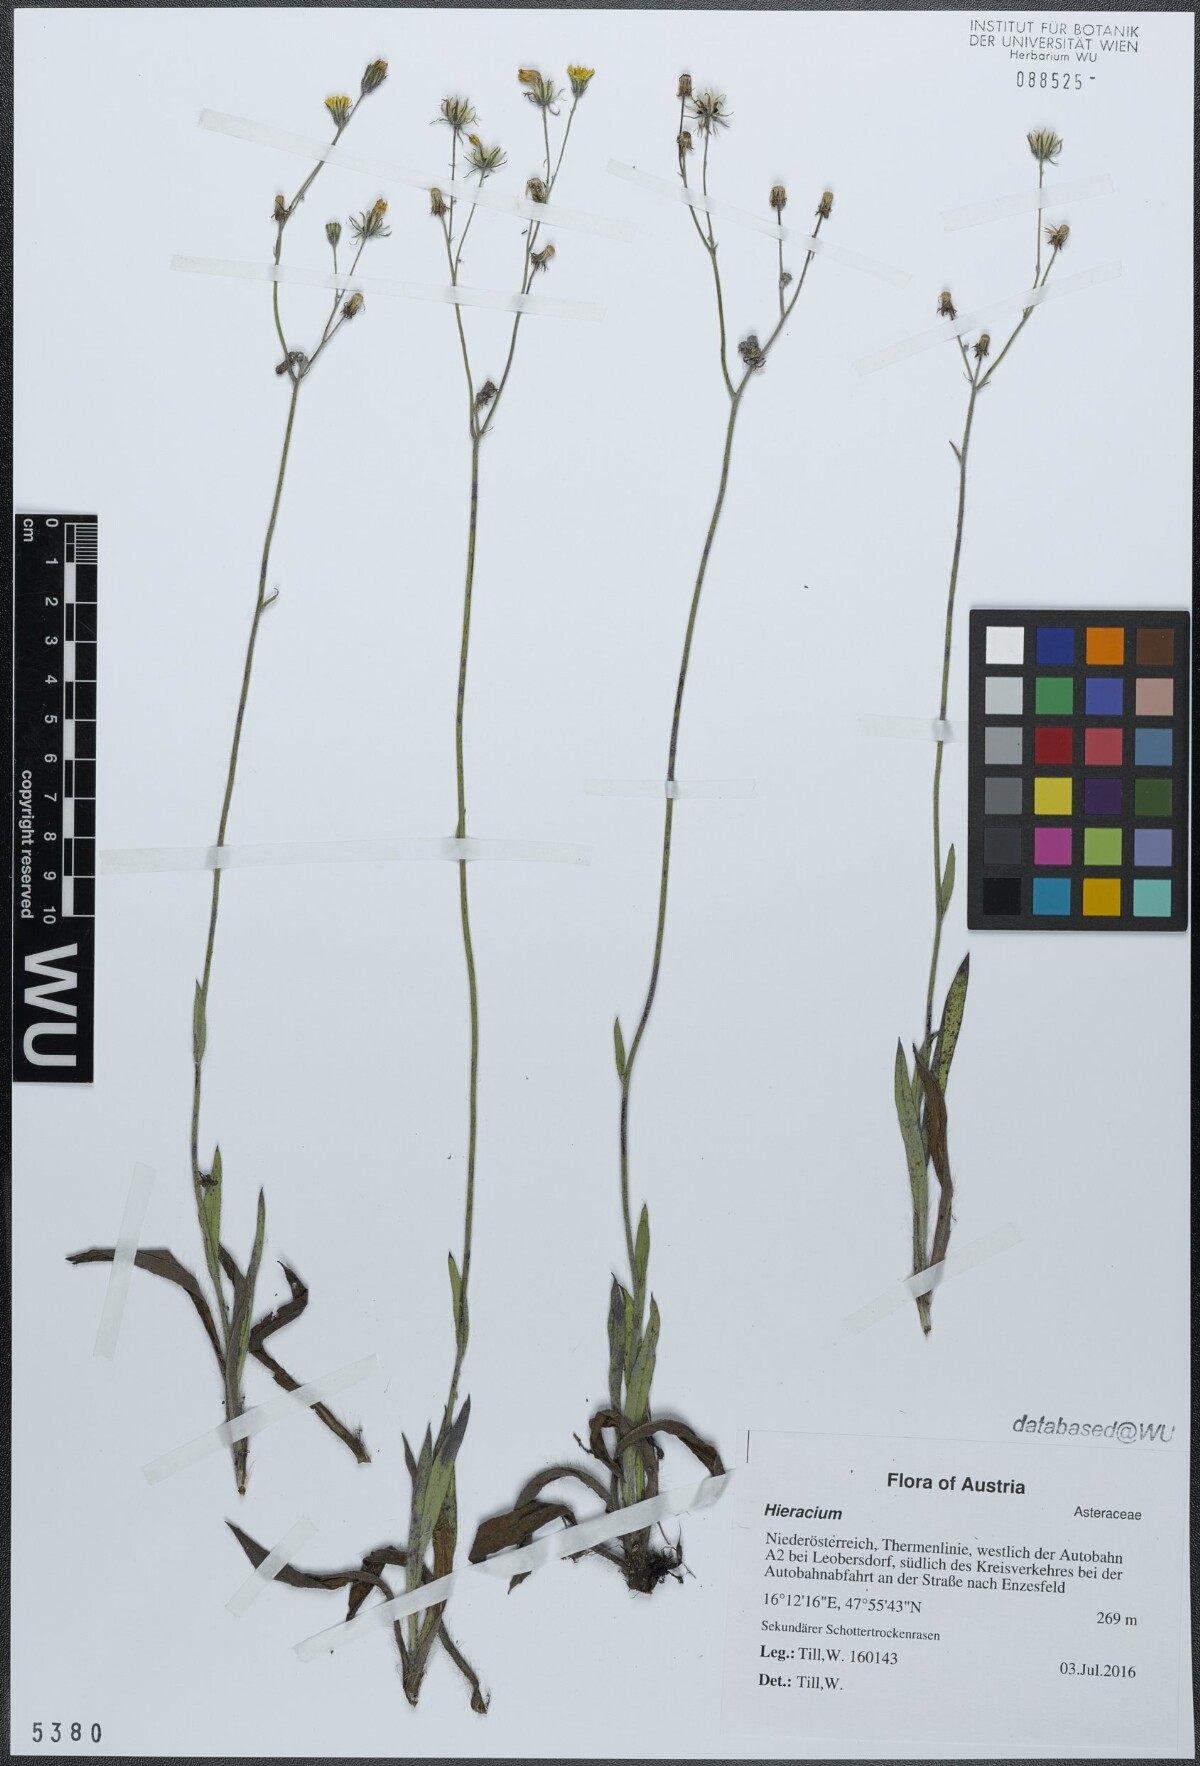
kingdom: Plantae
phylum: Tracheophyta
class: Magnoliopsida
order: Asterales
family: Asteraceae
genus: Pilosella
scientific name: Pilosella calodon
